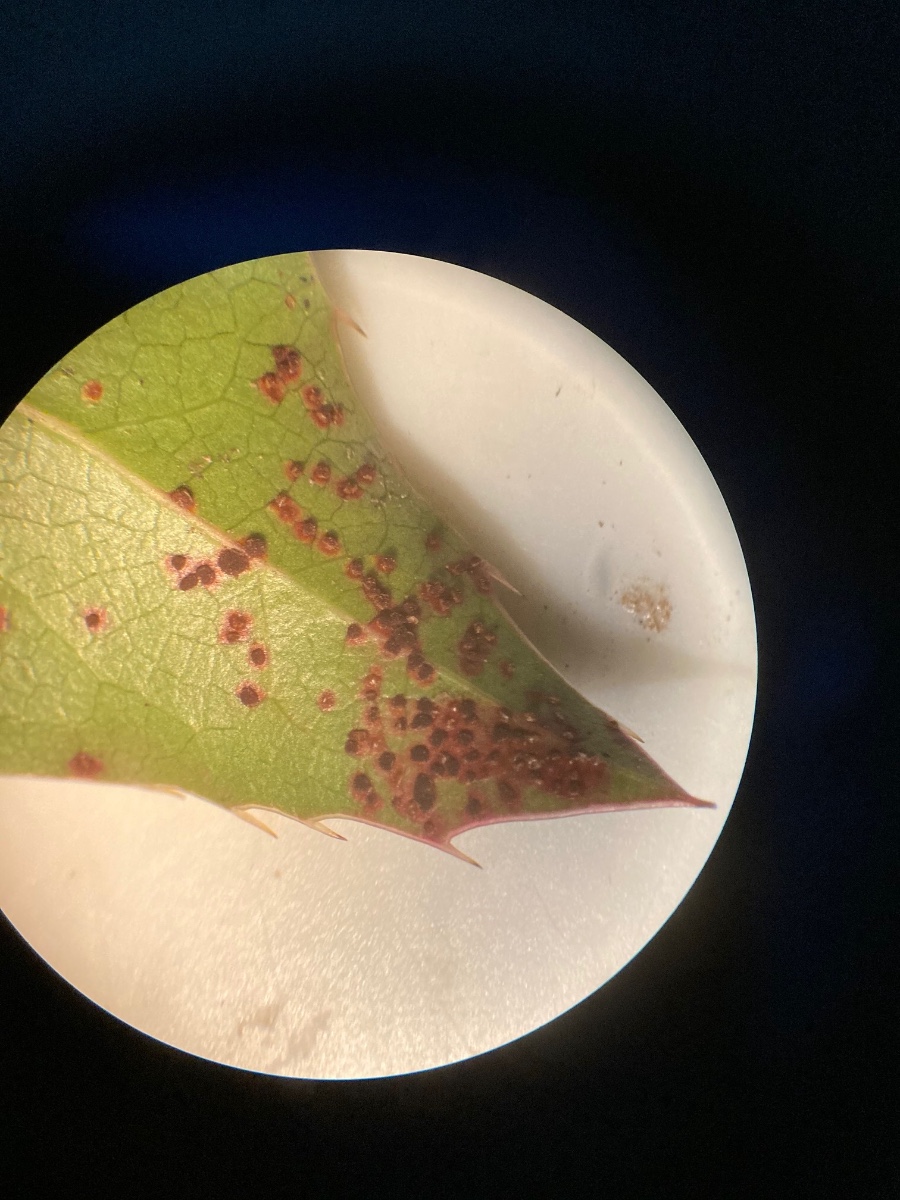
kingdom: Fungi
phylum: Basidiomycota
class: Pucciniomycetes
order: Pucciniales
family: Pucciniaceae
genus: Cumminsiella
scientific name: Cumminsiella mirabilissima
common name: mahonierust
